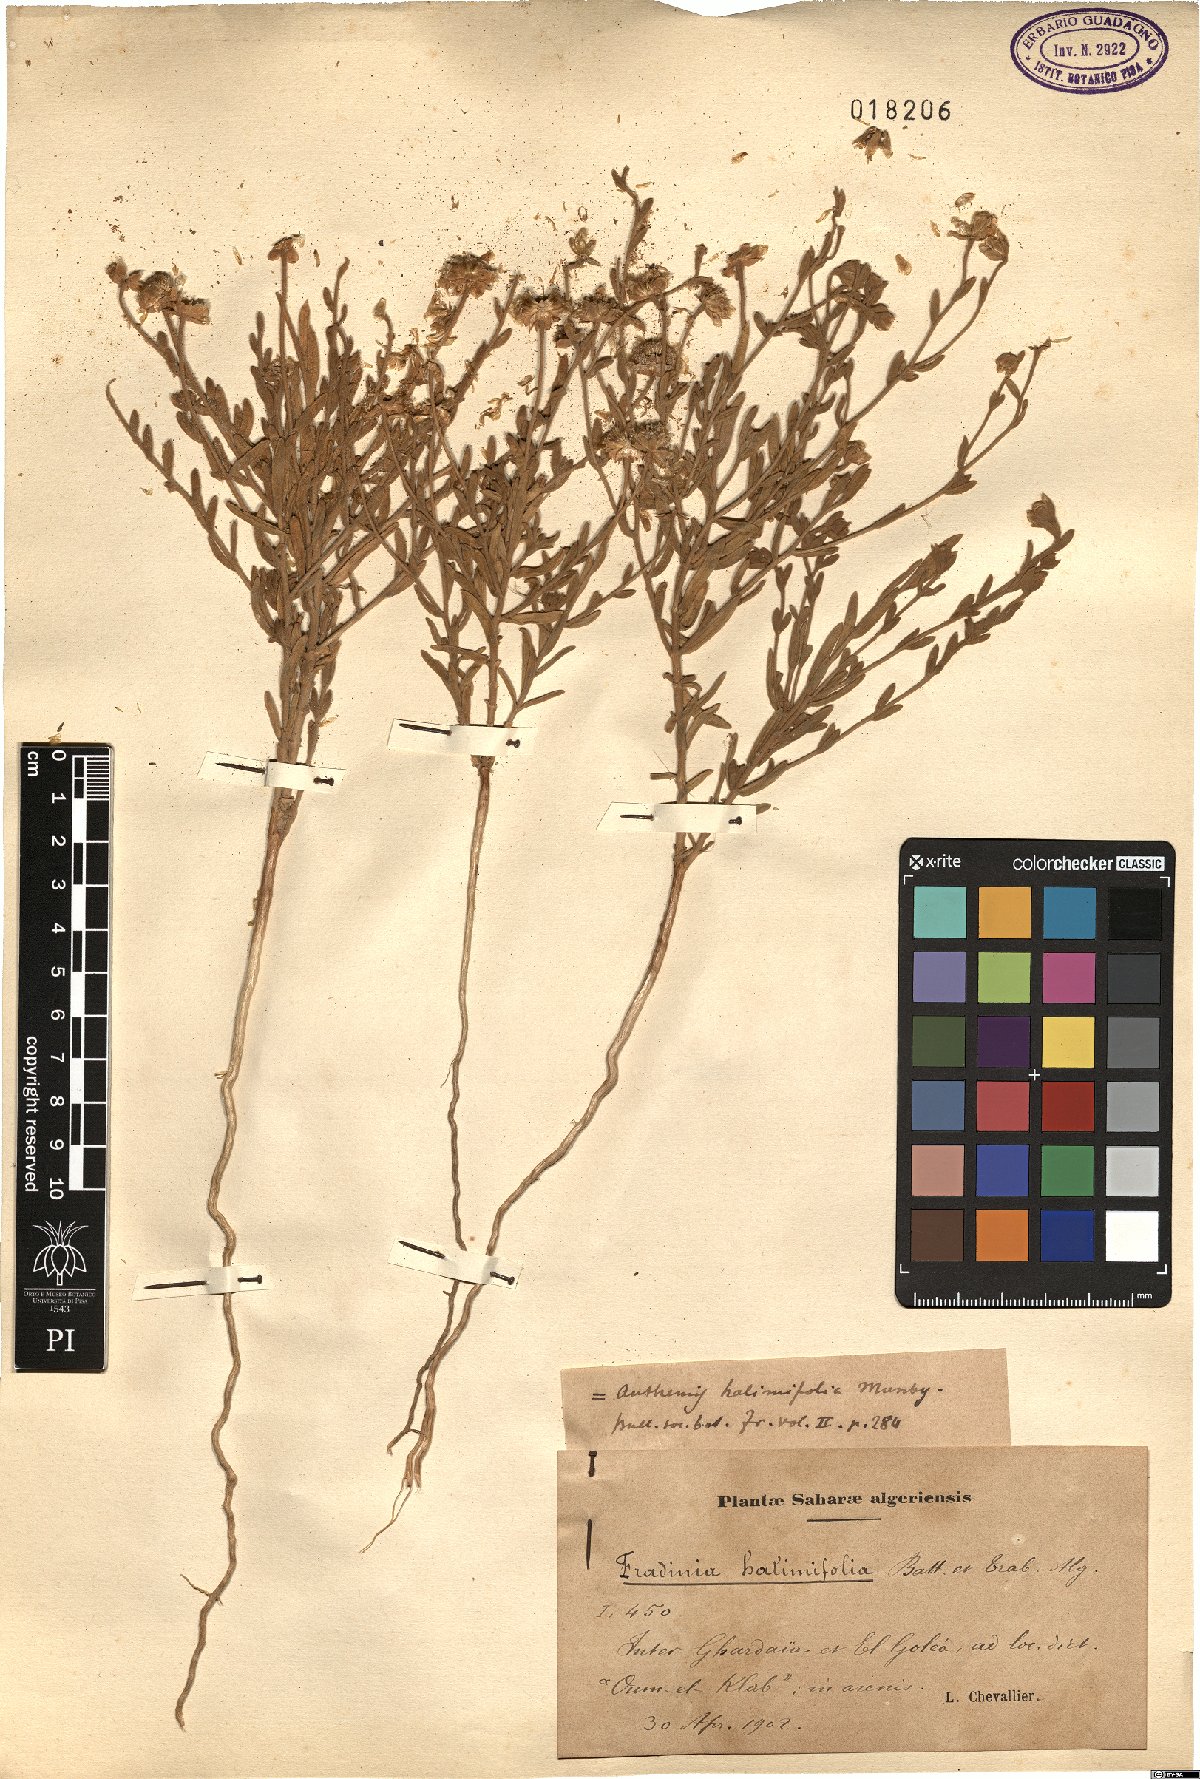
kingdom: Plantae
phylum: Tracheophyta
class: Magnoliopsida
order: Asterales
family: Asteraceae
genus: Mecomischus
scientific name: Mecomischus halimifolius
